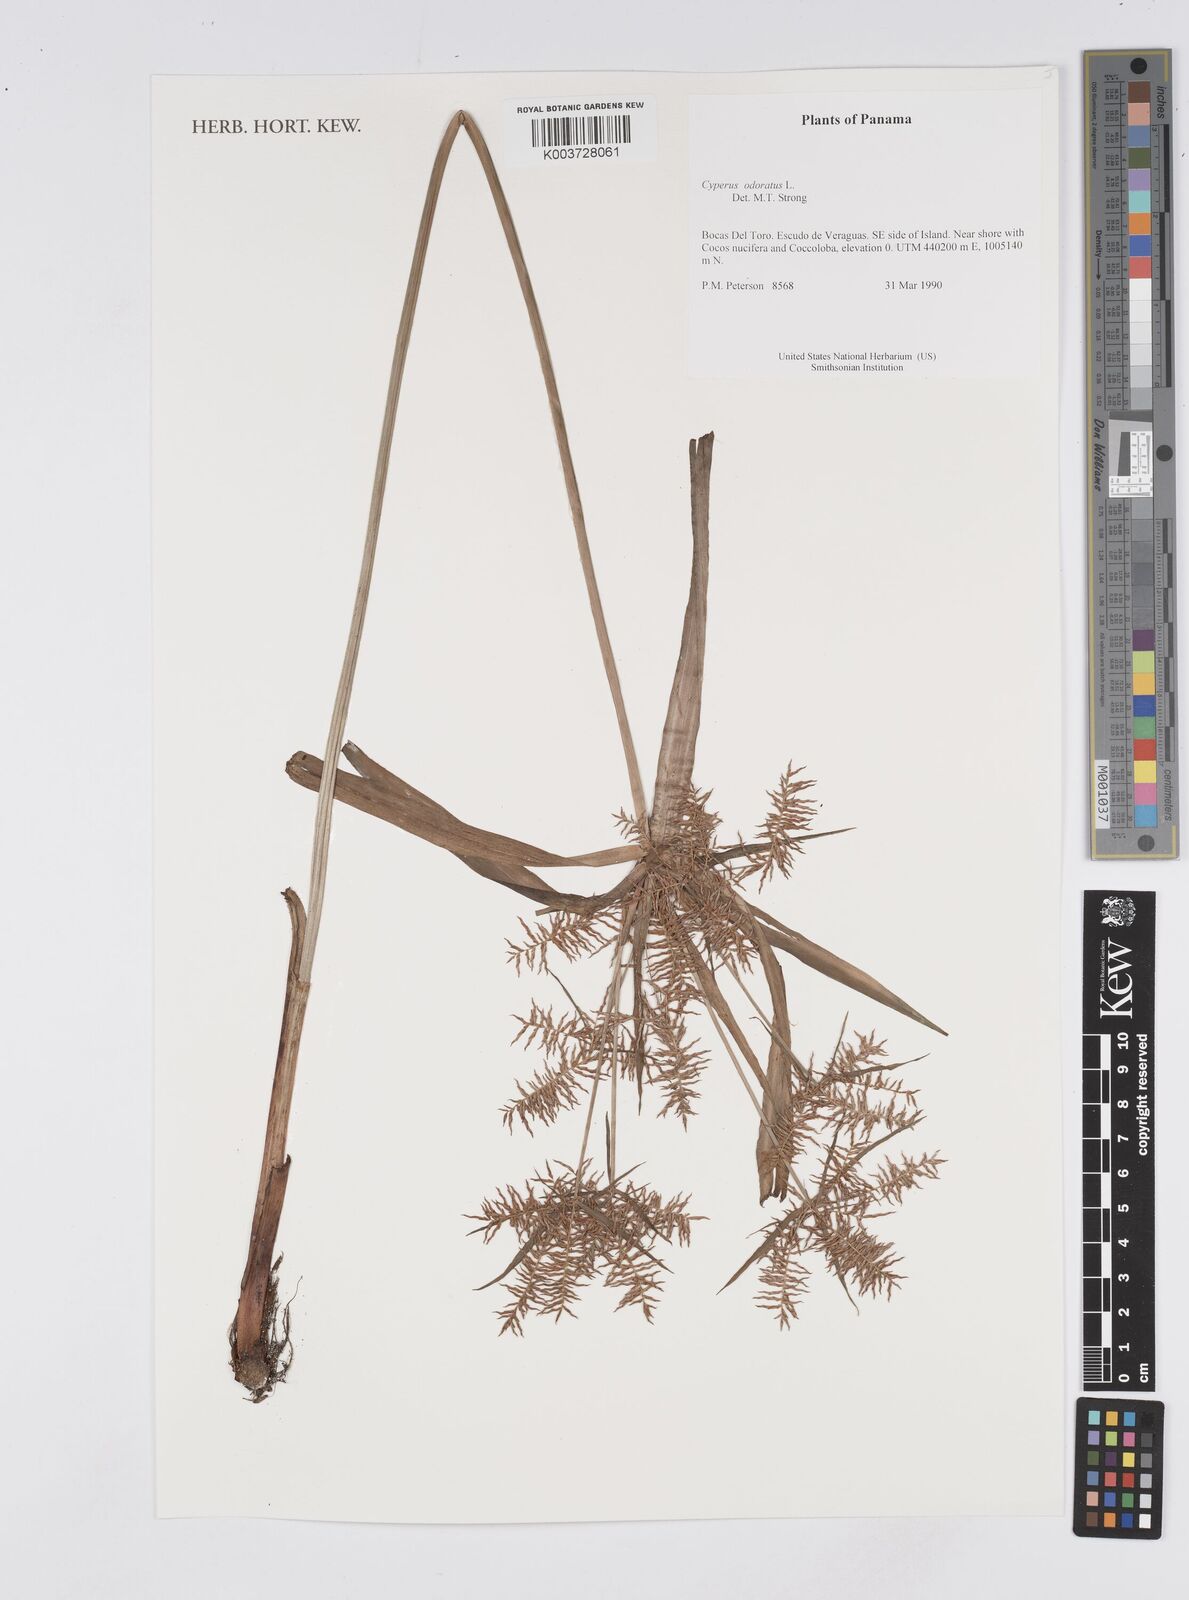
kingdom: Plantae
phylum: Tracheophyta
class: Liliopsida
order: Poales
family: Cyperaceae
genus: Cyperus
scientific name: Cyperus odoratus
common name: Fragrant flatsedge
